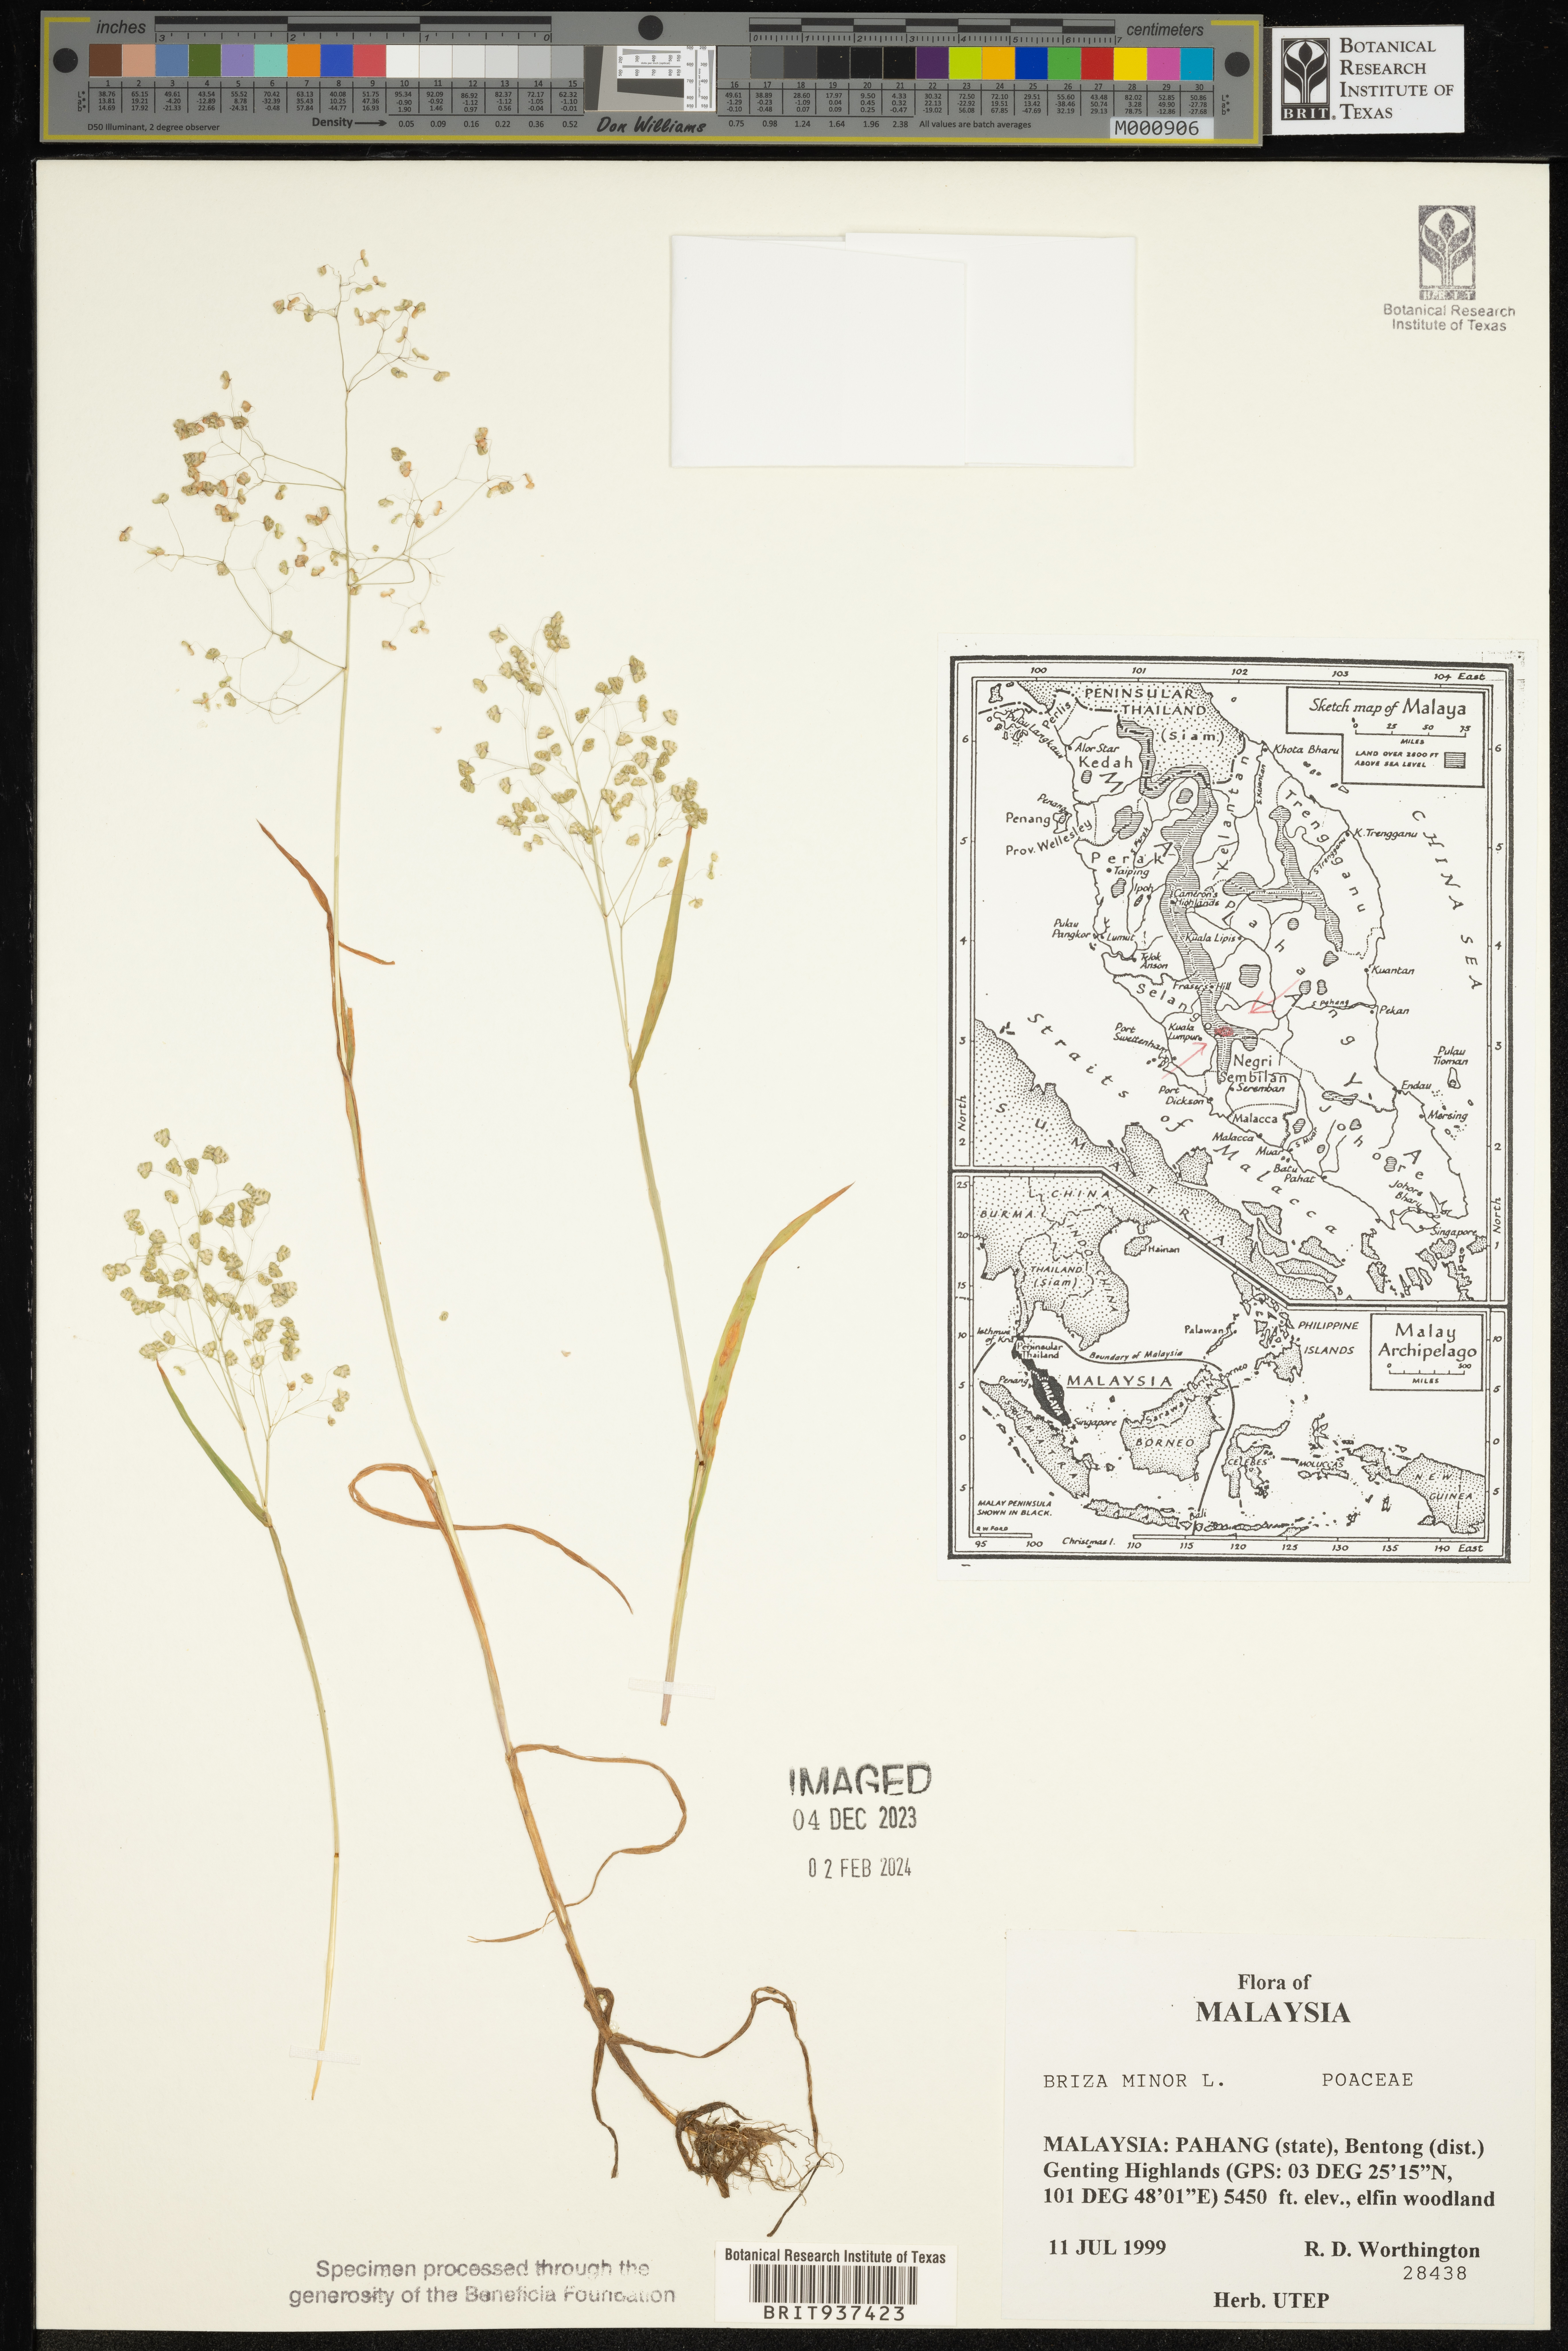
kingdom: Plantae
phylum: Tracheophyta
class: Liliopsida
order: Poales
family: Poaceae
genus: Briza
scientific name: Briza
